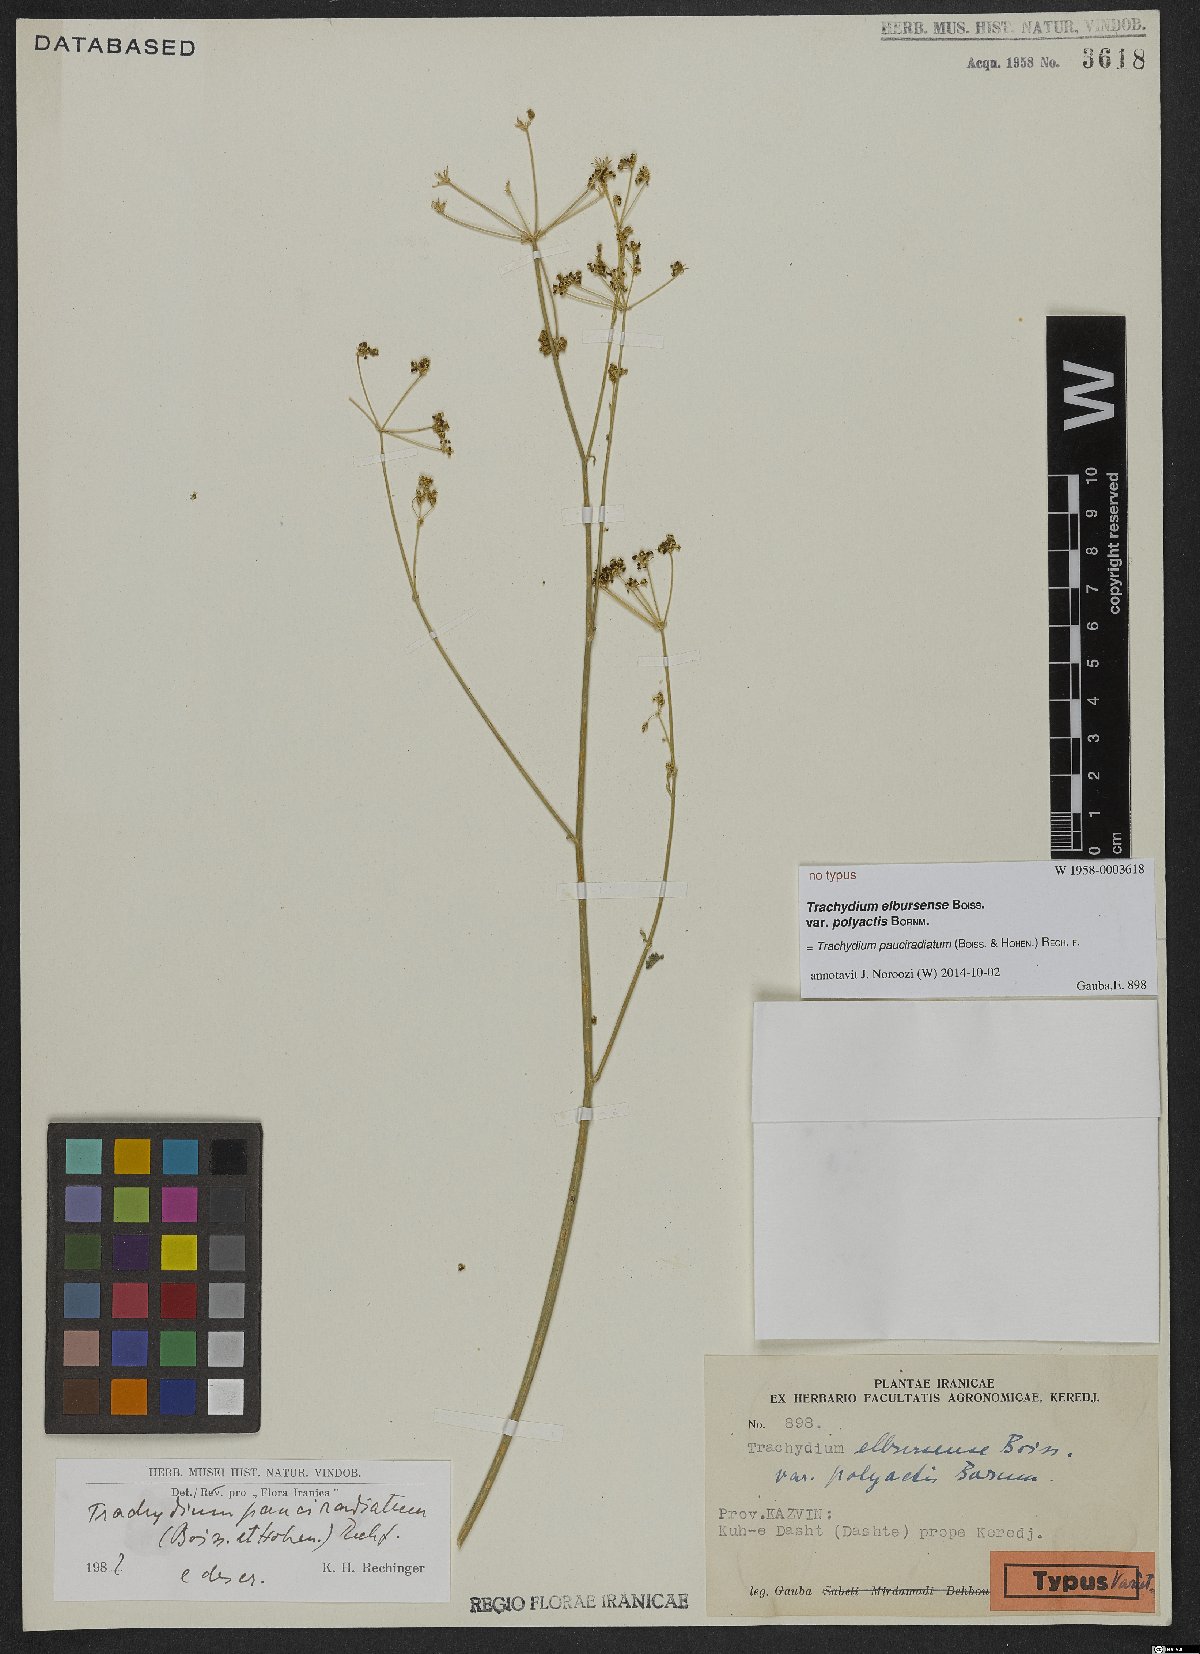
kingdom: Plantae
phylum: Tracheophyta
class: Magnoliopsida
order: Apiales
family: Apiaceae
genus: Pseudotrachydium
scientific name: Pseudotrachydium pauciradiatum
